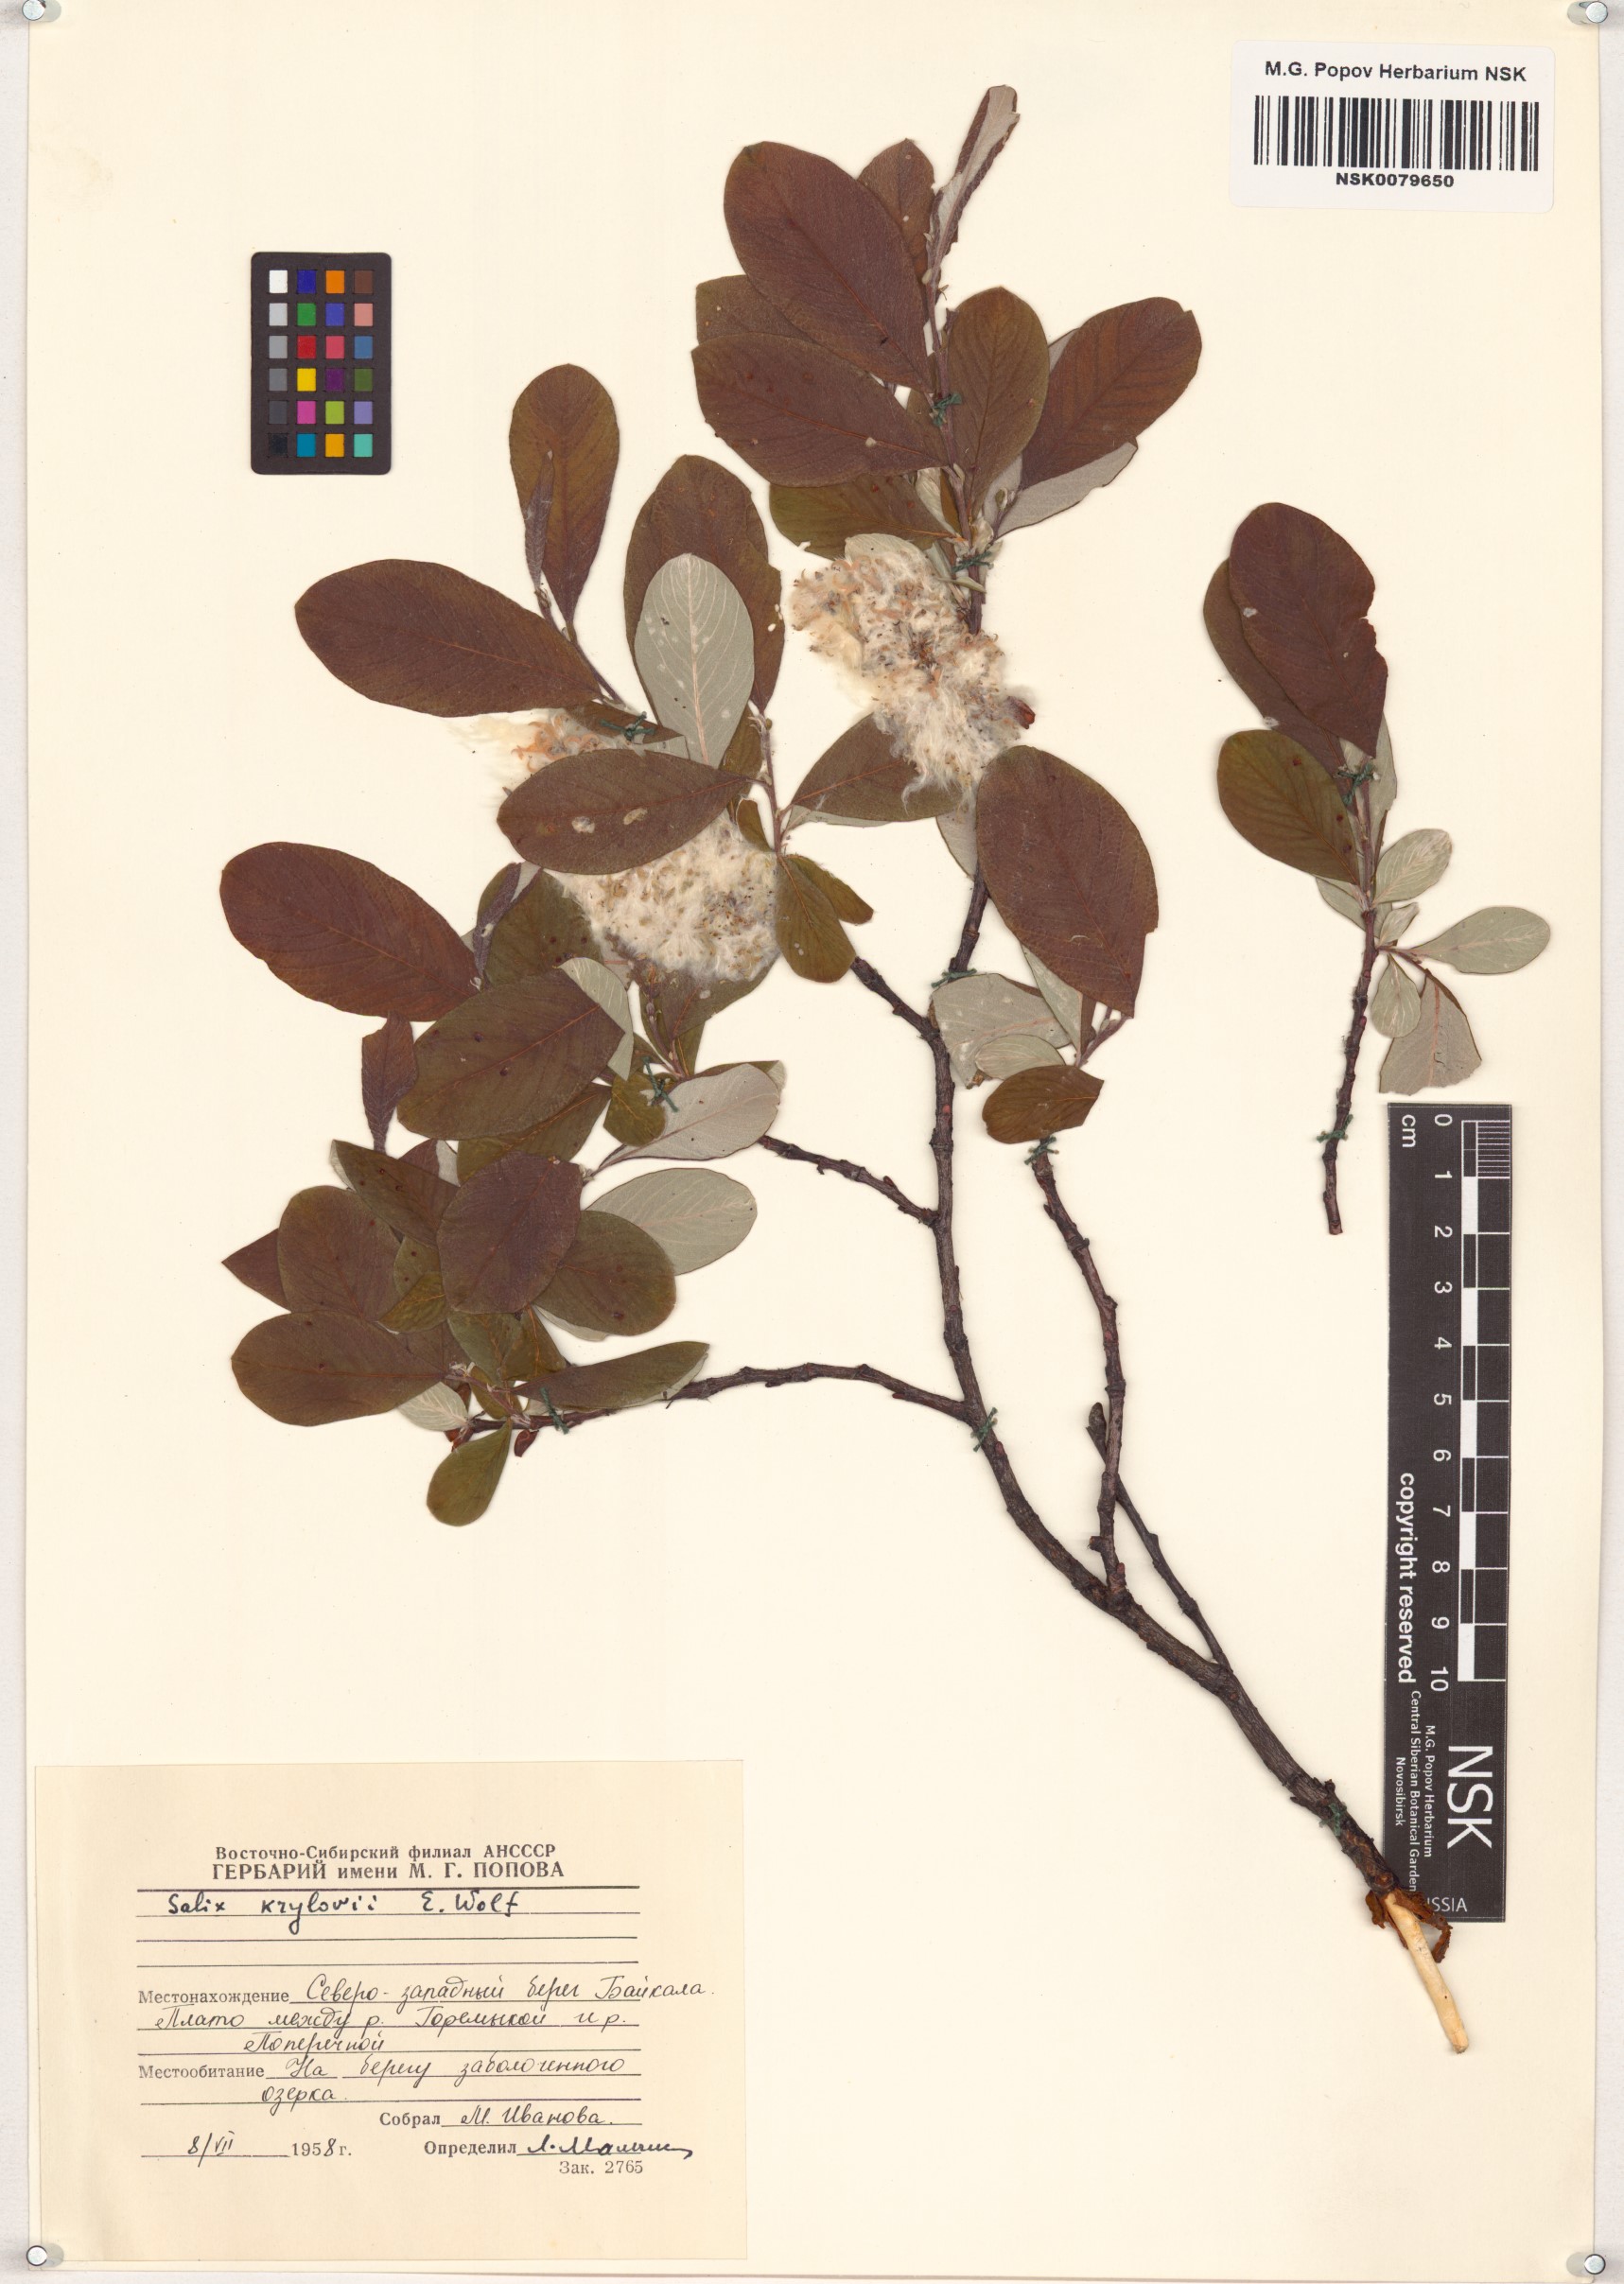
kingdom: Plantae
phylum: Tracheophyta
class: Magnoliopsida
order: Malpighiales
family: Salicaceae
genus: Salix
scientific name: Salix krylovii
